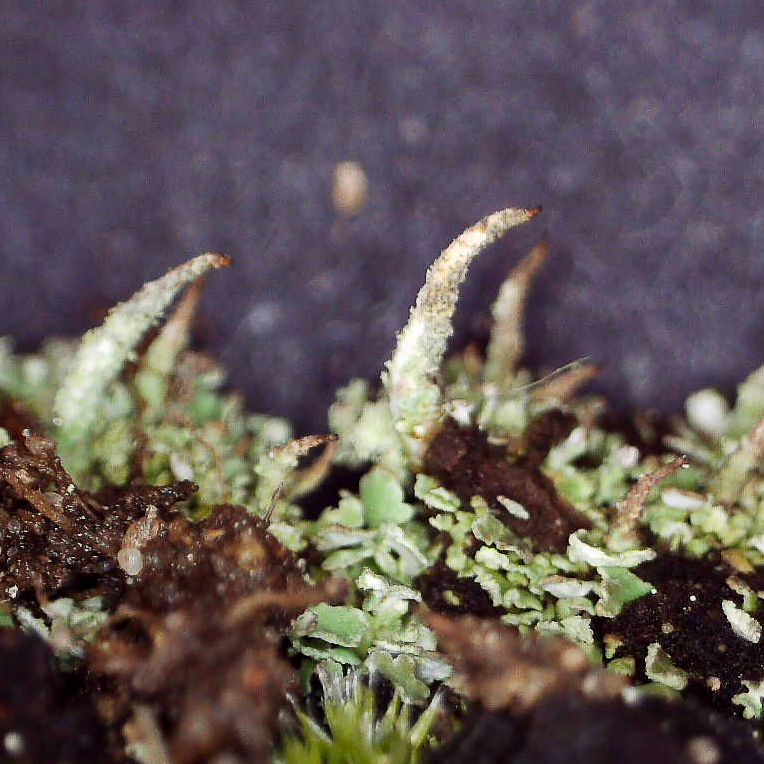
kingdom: Fungi
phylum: Ascomycota
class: Lecanoromycetes
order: Lecanorales
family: Cladoniaceae
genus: Cladonia
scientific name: Cladonia coniocraea
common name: træfods-bægerlav
